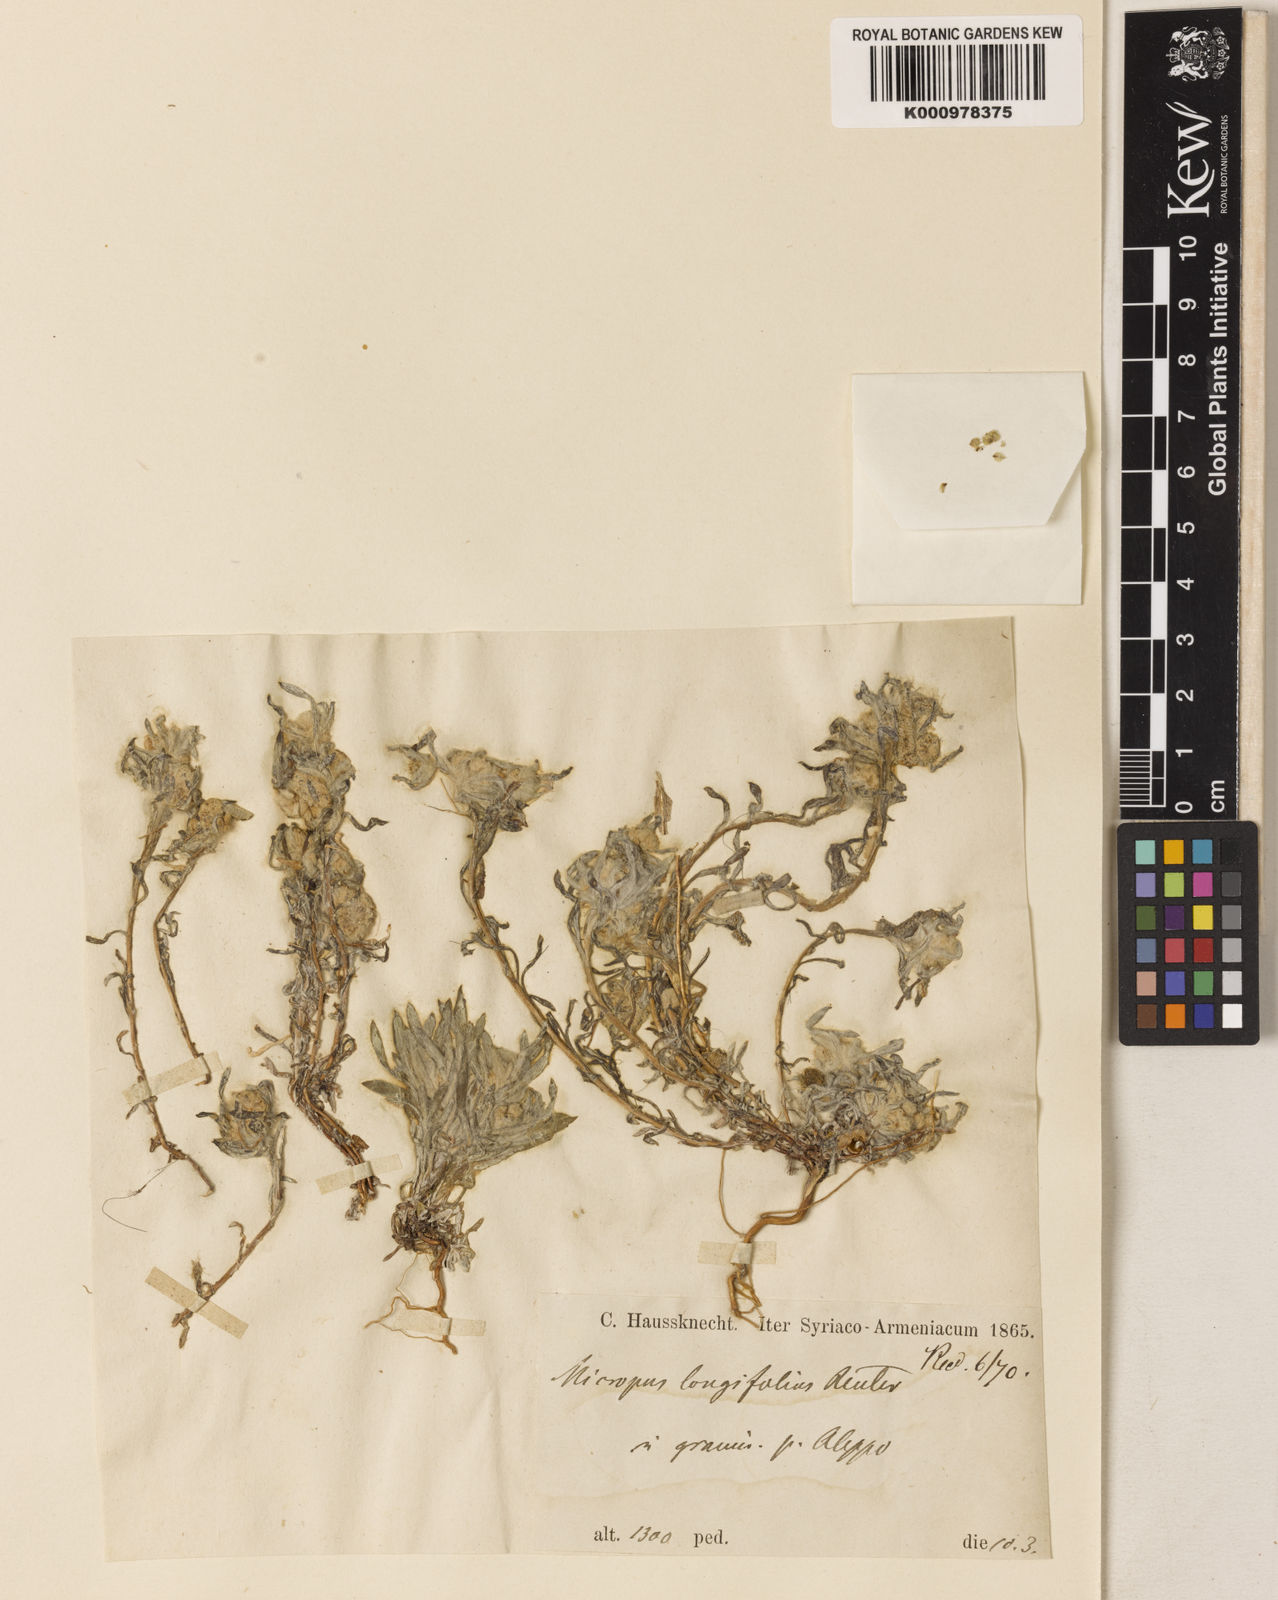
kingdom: Plantae
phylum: Tracheophyta
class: Magnoliopsida
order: Asterales
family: Asteraceae
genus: Filago
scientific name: Filago griffithii
